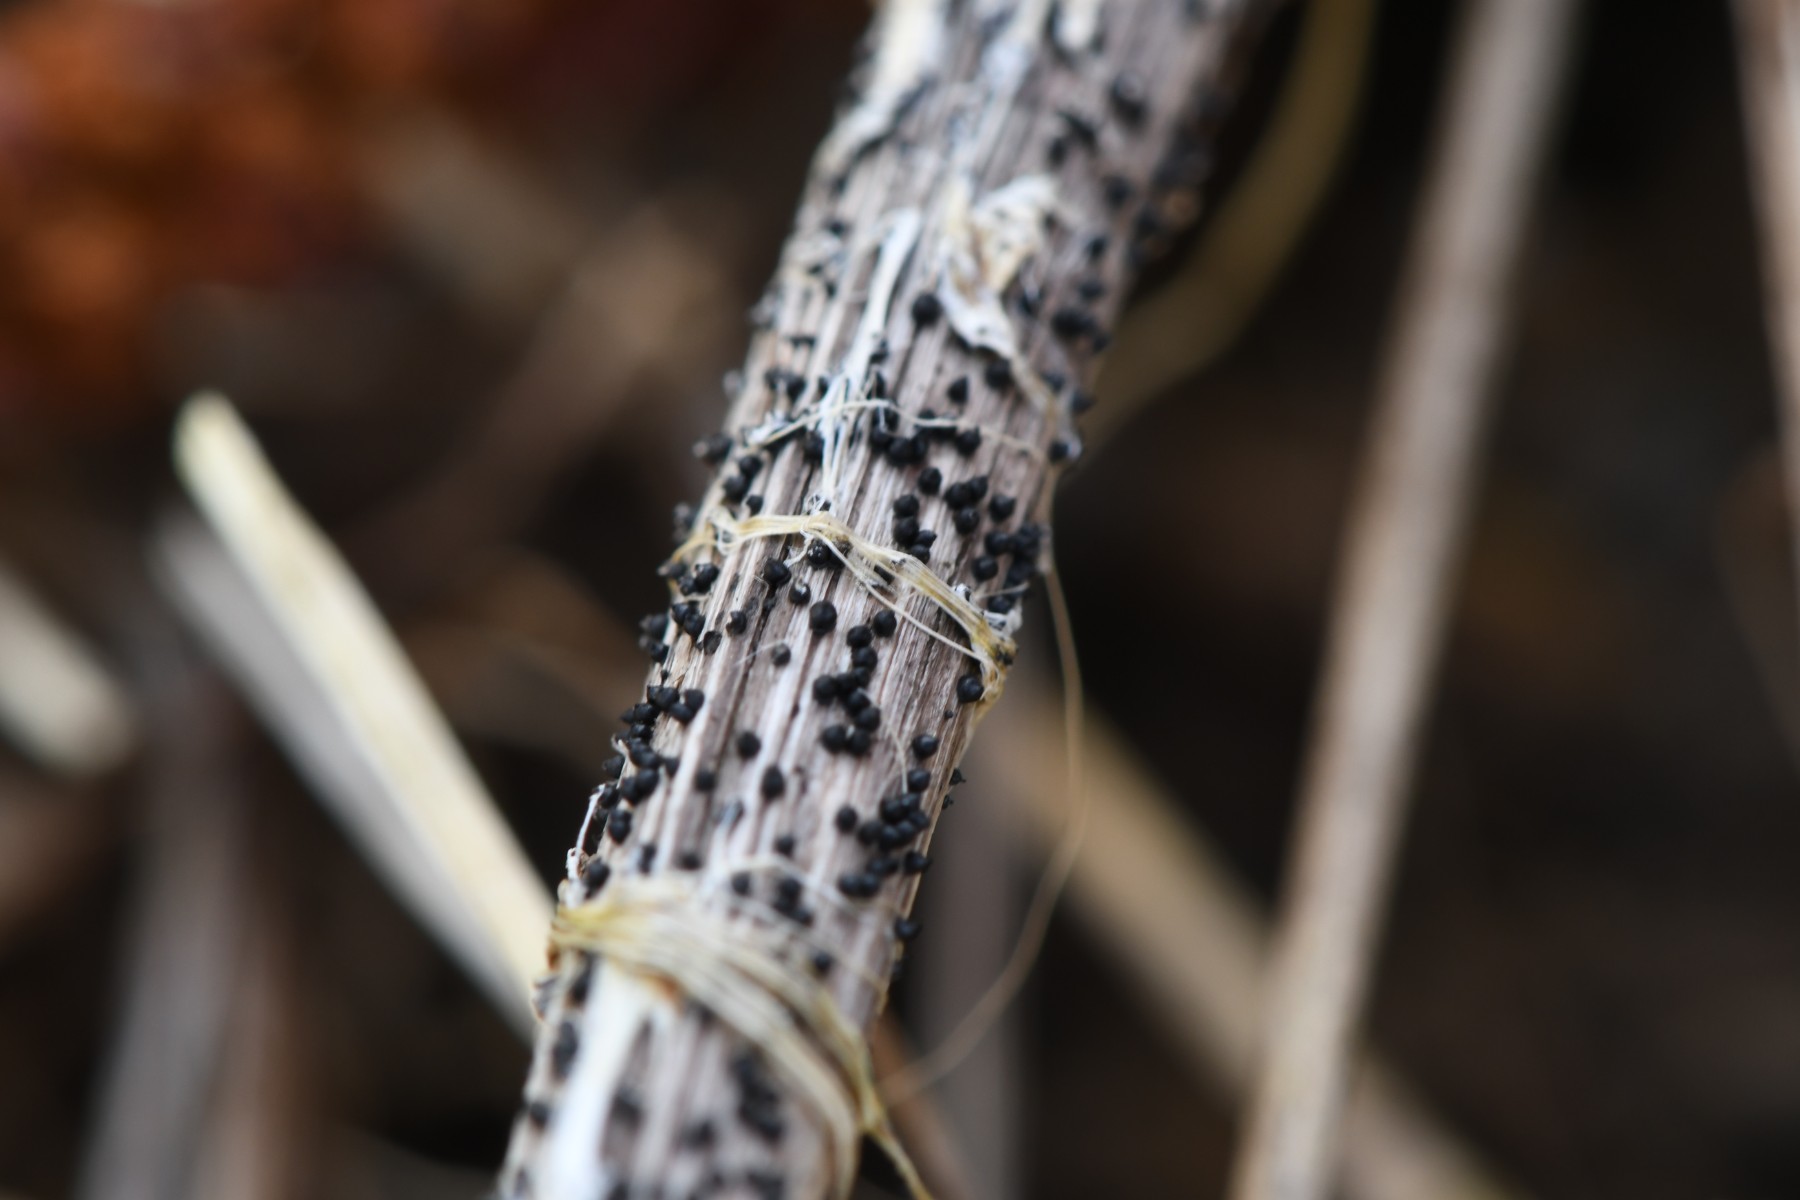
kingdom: Fungi
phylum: Ascomycota
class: Dothideomycetes
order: Pleosporales
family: Leptosphaeriaceae
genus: Leptosphaeria
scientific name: Leptosphaeria
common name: kulkegle
